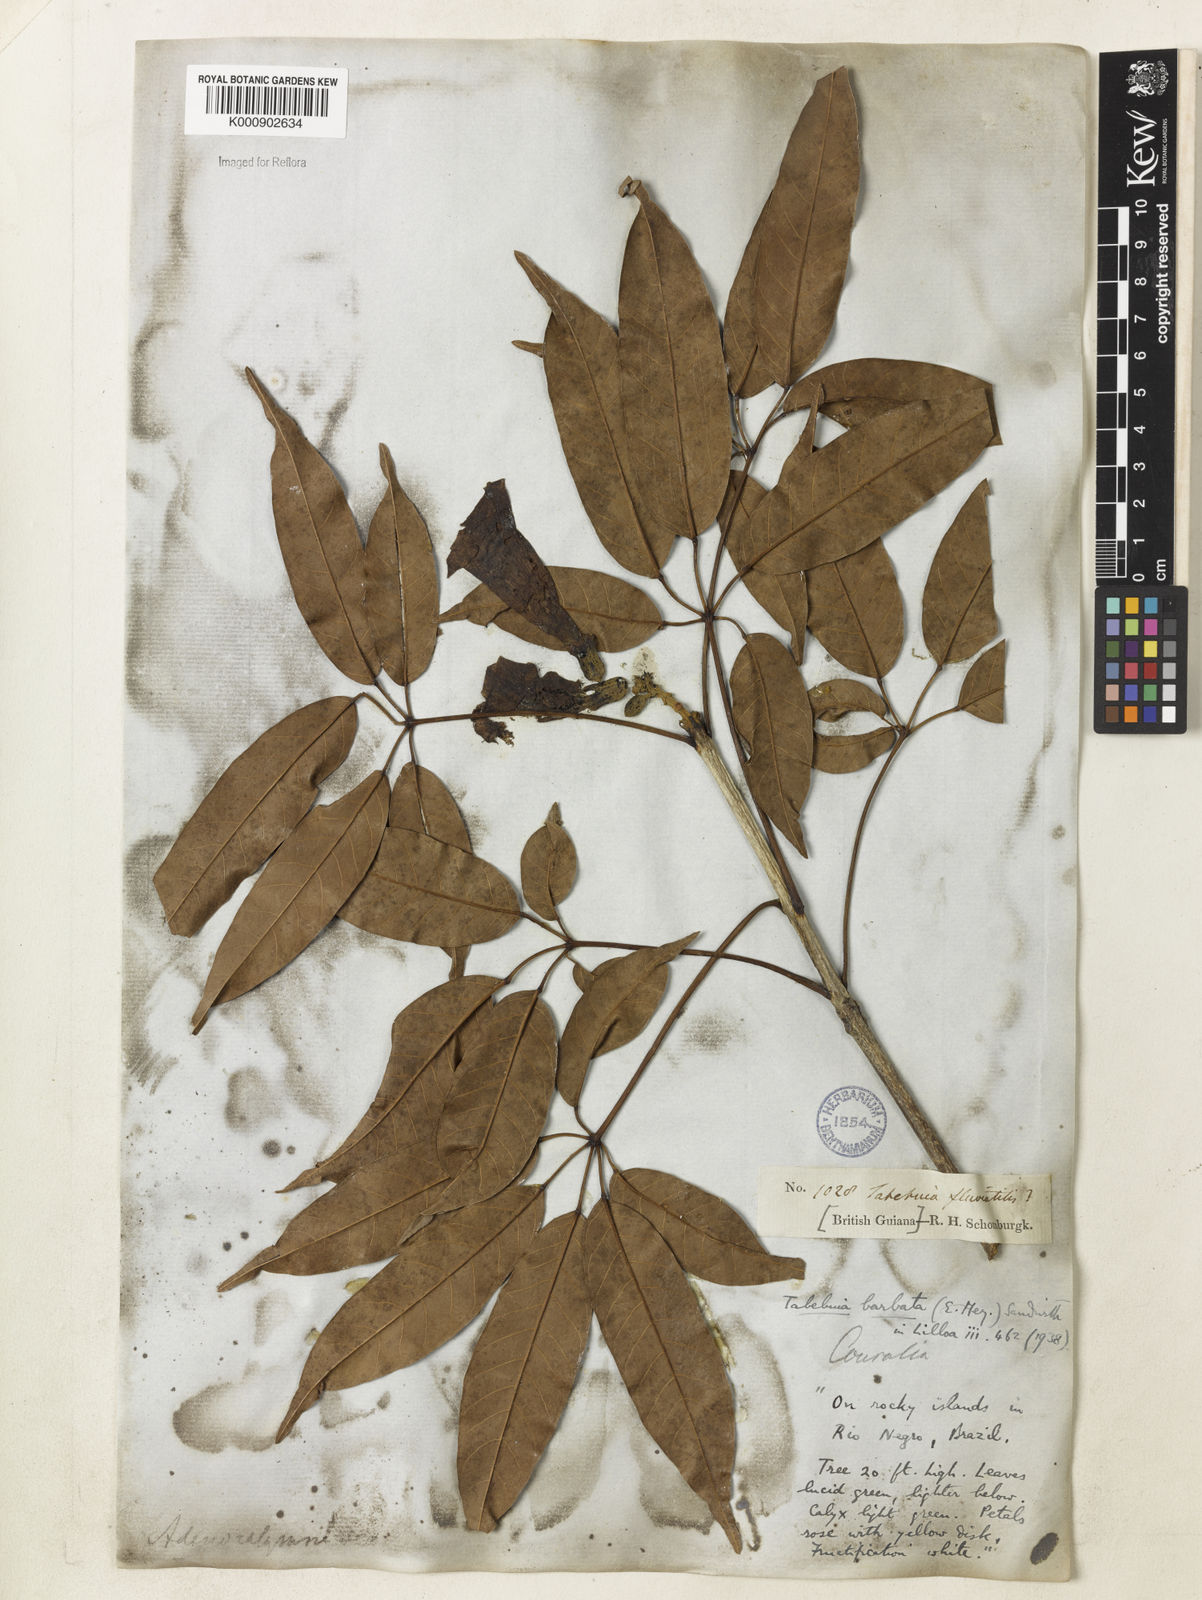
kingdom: Plantae
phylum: Tracheophyta
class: Magnoliopsida
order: Lamiales
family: Bignoniaceae
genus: Handroanthus
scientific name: Handroanthus barbatus
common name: Trumpet trees
